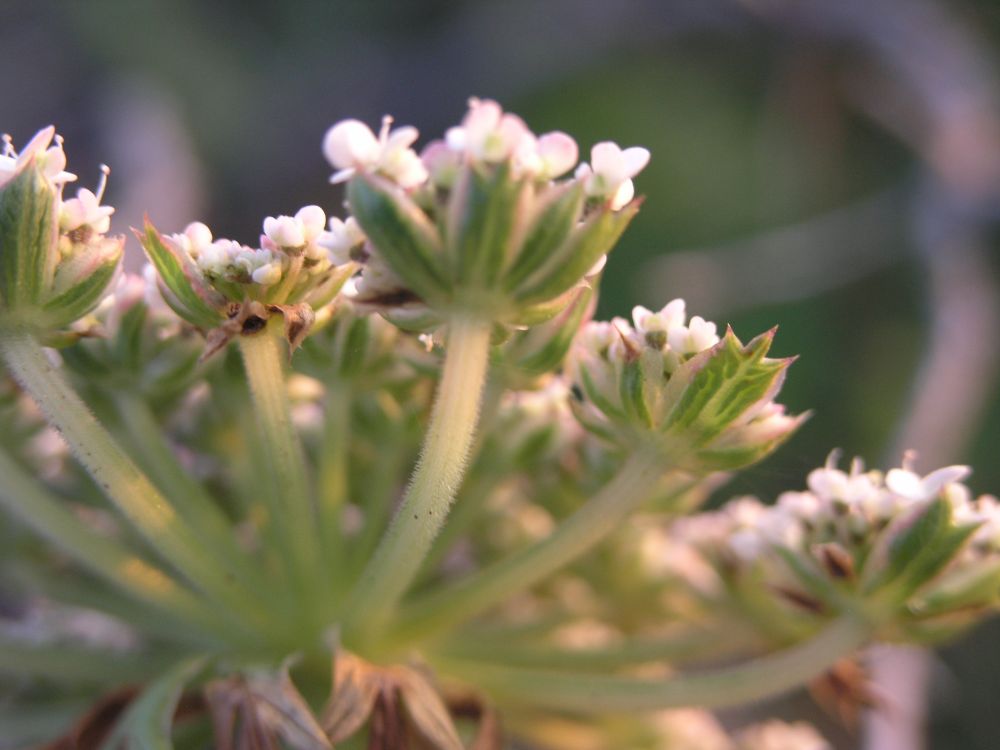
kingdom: Plantae
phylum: Tracheophyta
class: Magnoliopsida
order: Apiales
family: Apiaceae
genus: Daucus
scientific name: Daucus carota
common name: Wild carrot
